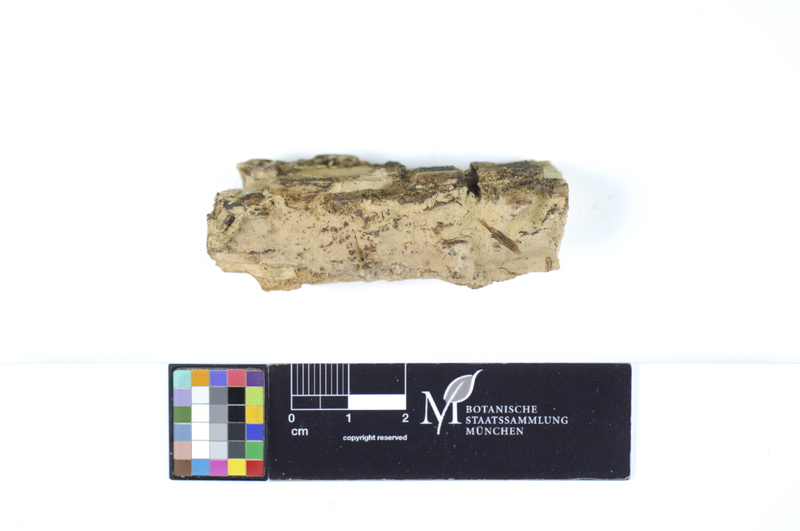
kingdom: Plantae
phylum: Tracheophyta
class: Magnoliopsida
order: Sapindales
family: Sapindaceae
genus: Aesculus
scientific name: Aesculus
